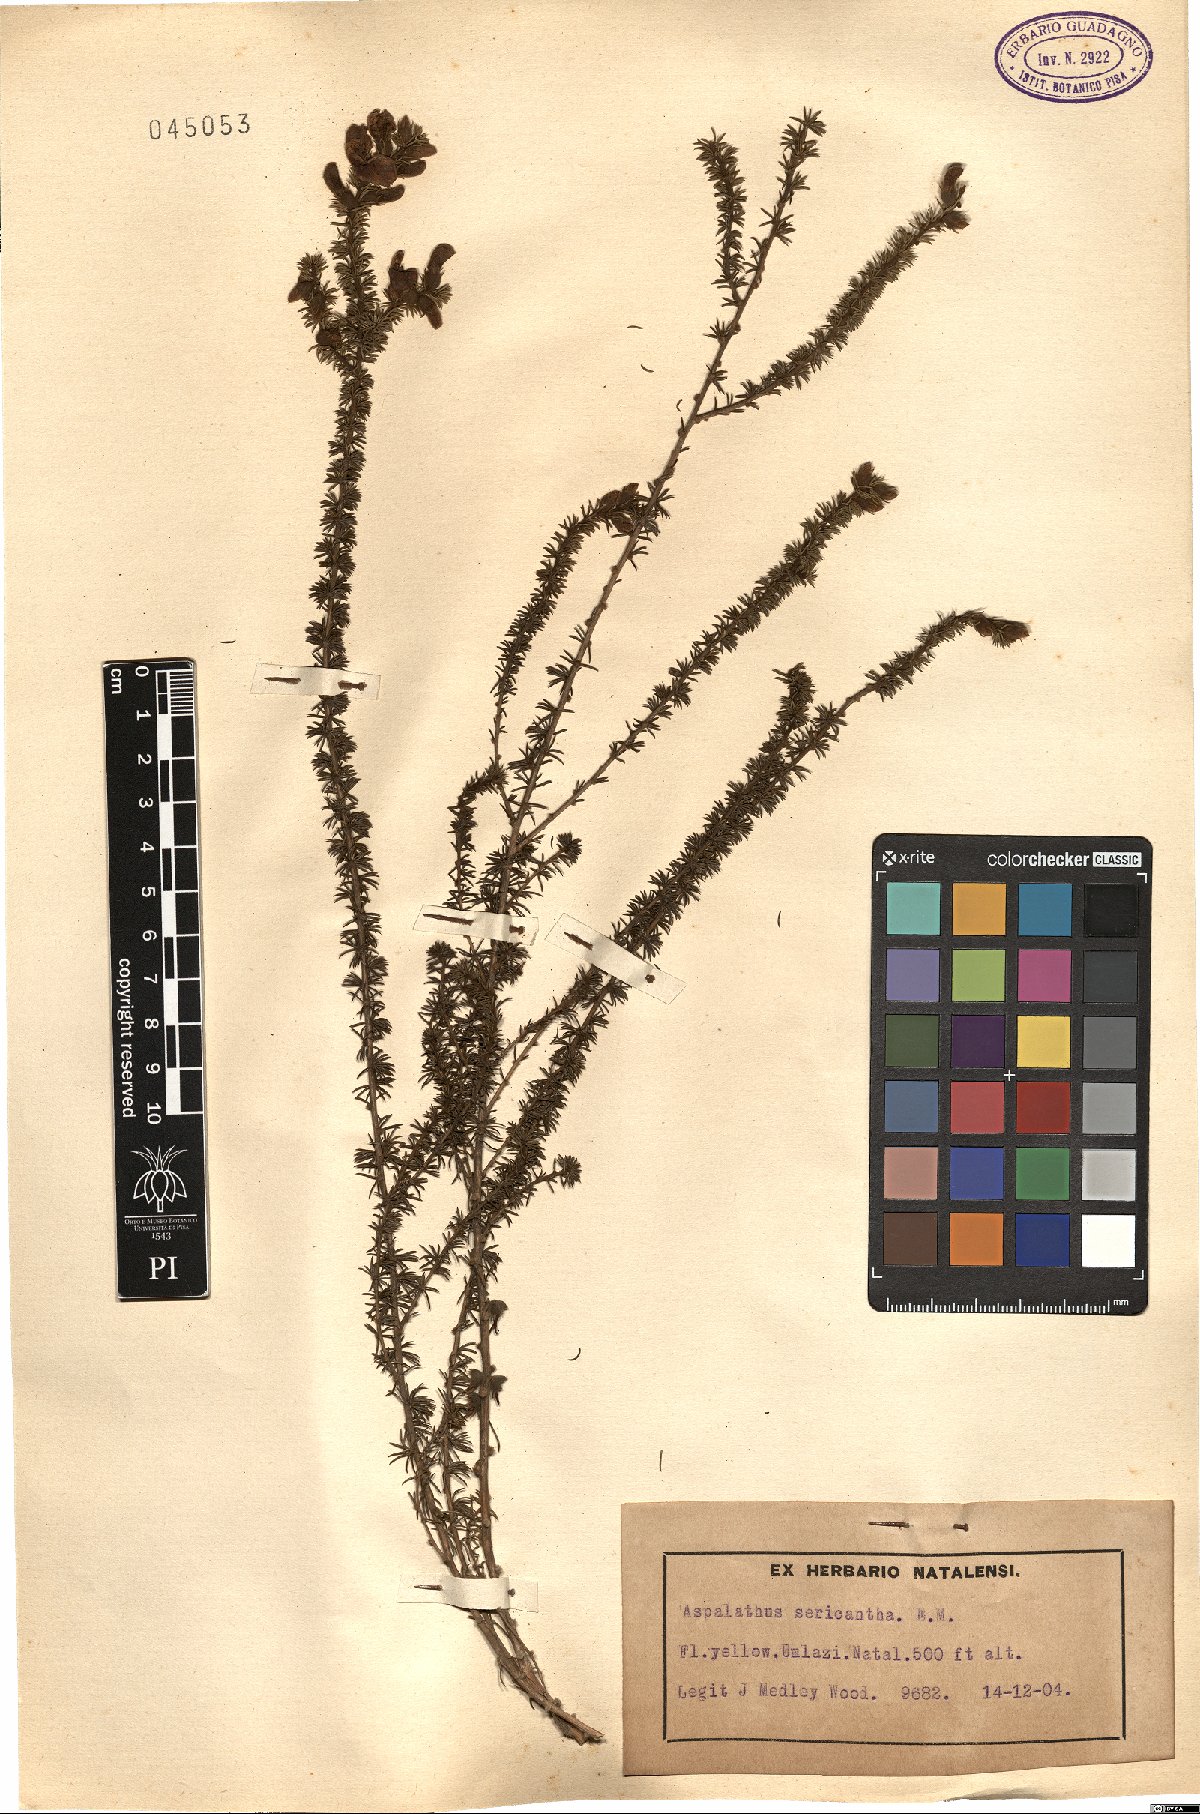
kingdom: Plantae
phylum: Tracheophyta
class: Magnoliopsida
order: Fabales
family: Fabaceae
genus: Aspalathus
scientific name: Aspalathus laricifolia
